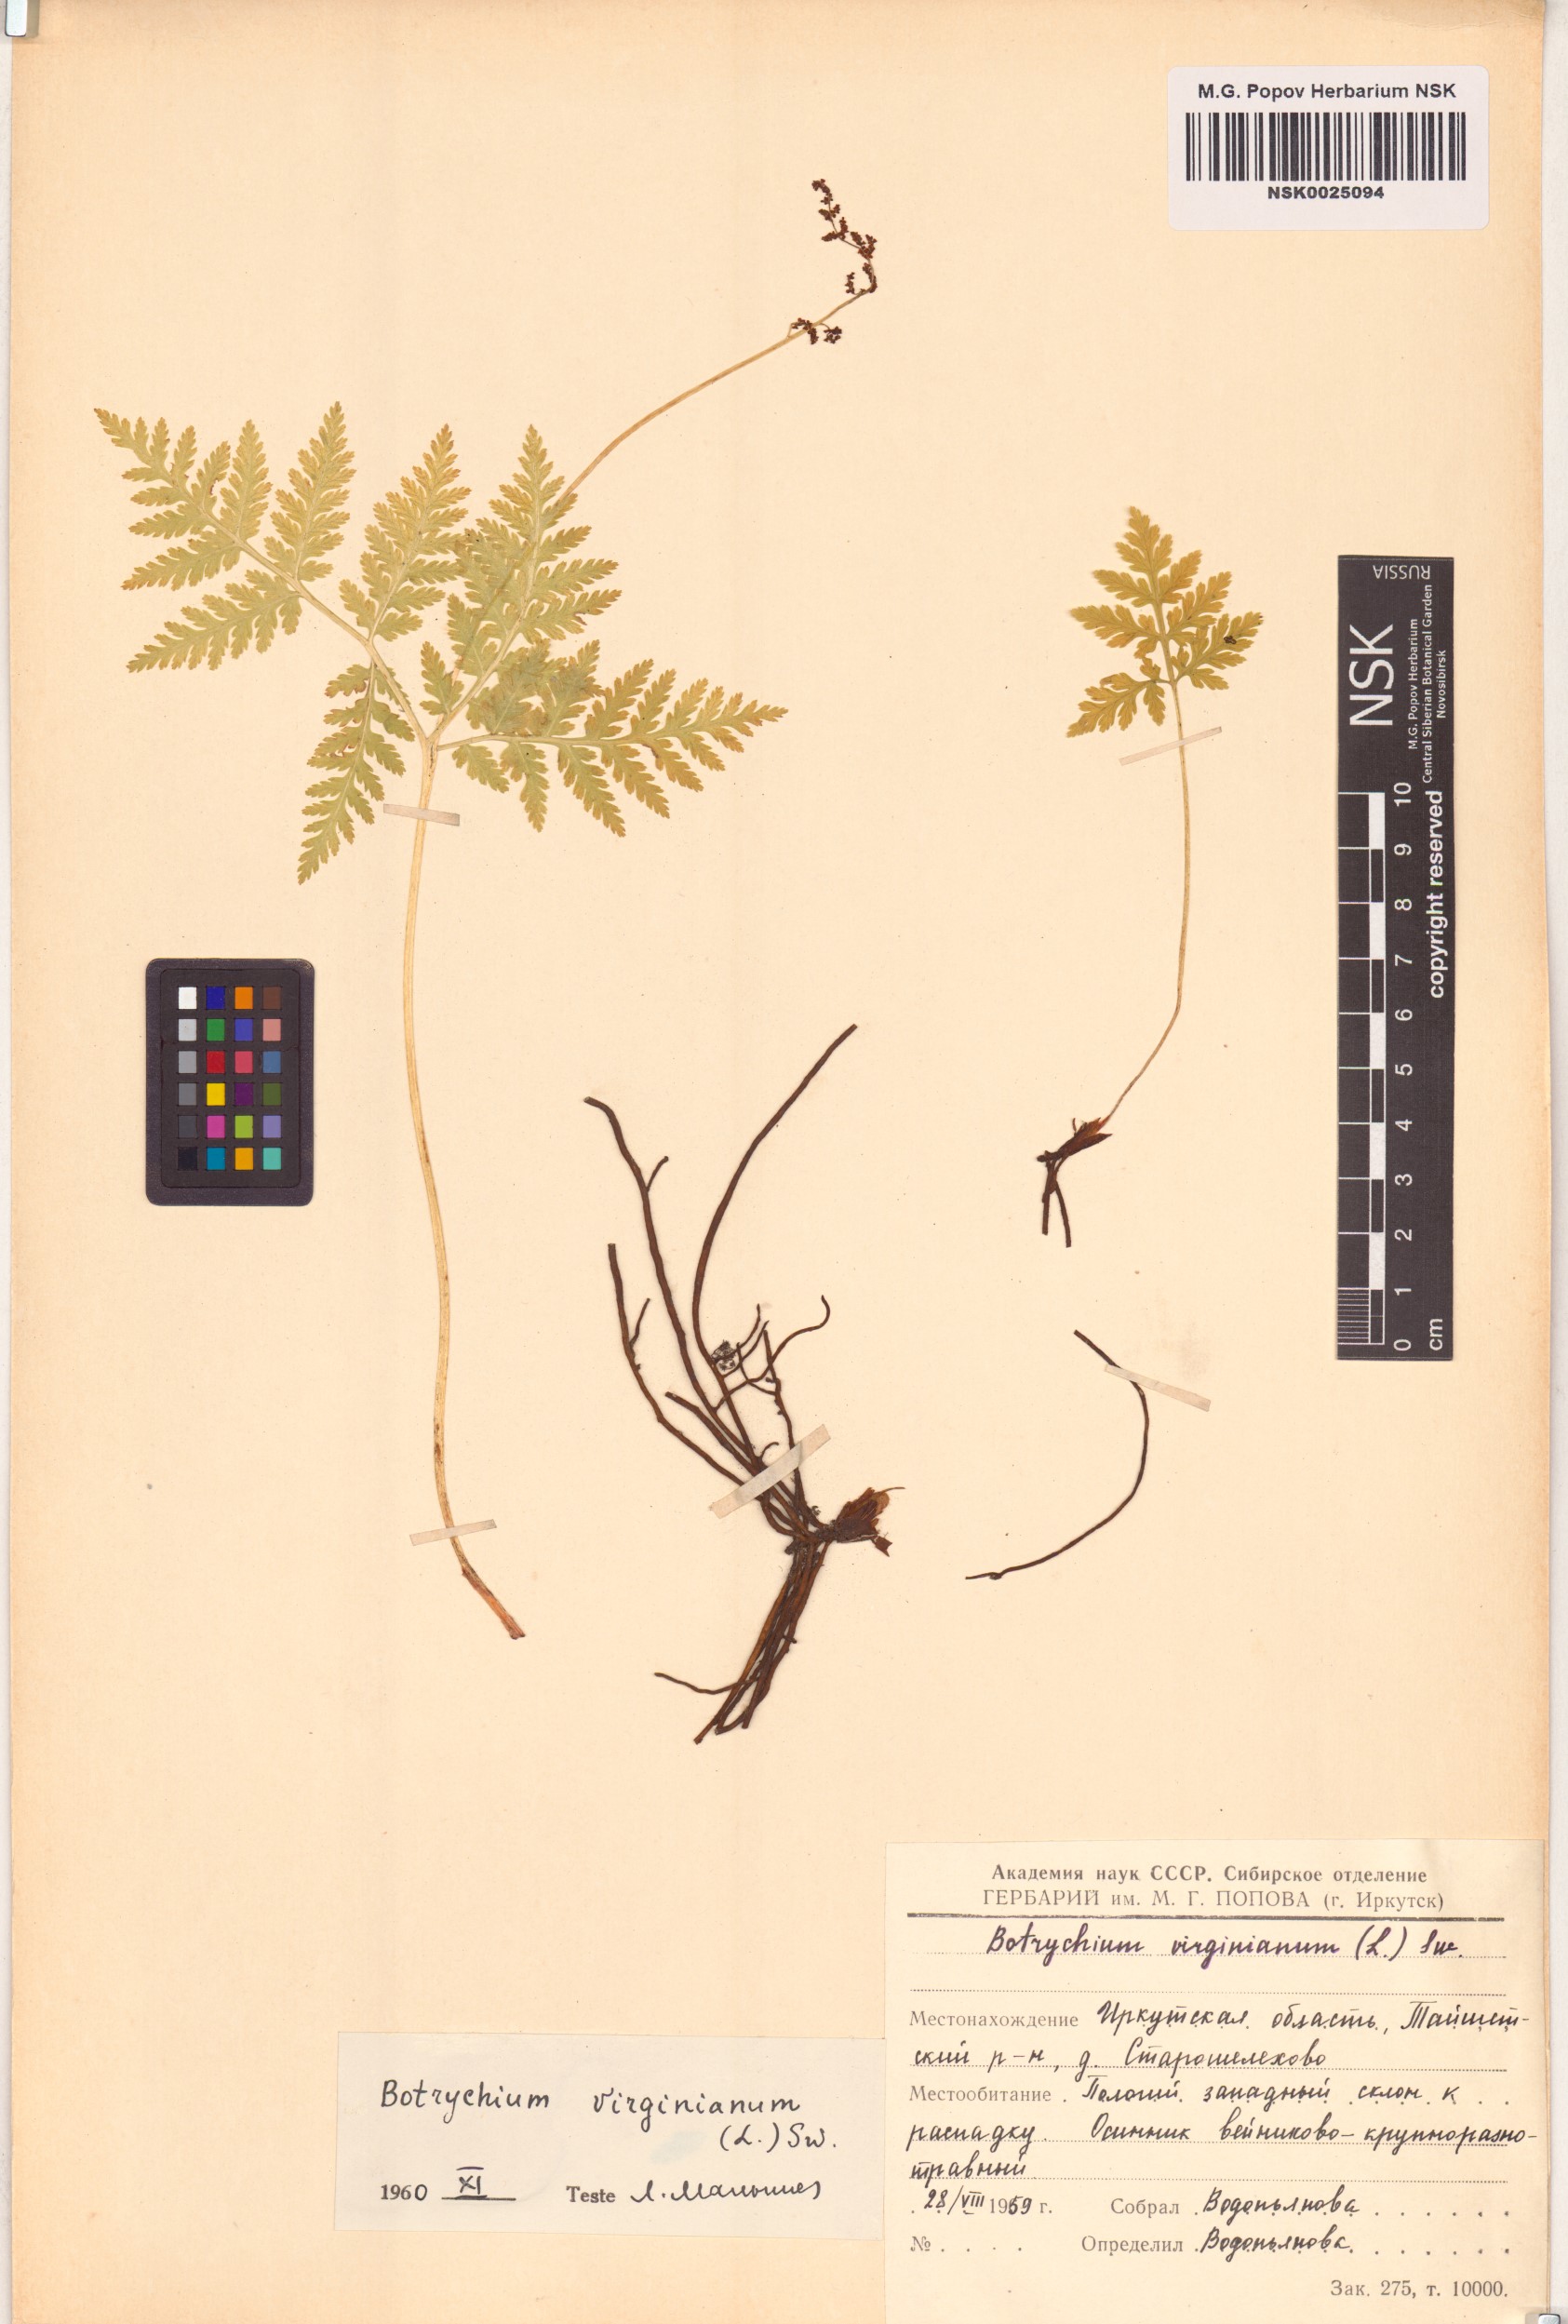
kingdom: Plantae
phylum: Tracheophyta
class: Polypodiopsida
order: Ophioglossales
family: Ophioglossaceae
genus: Botrypus
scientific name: Botrypus virginianus
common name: Common grapefern
